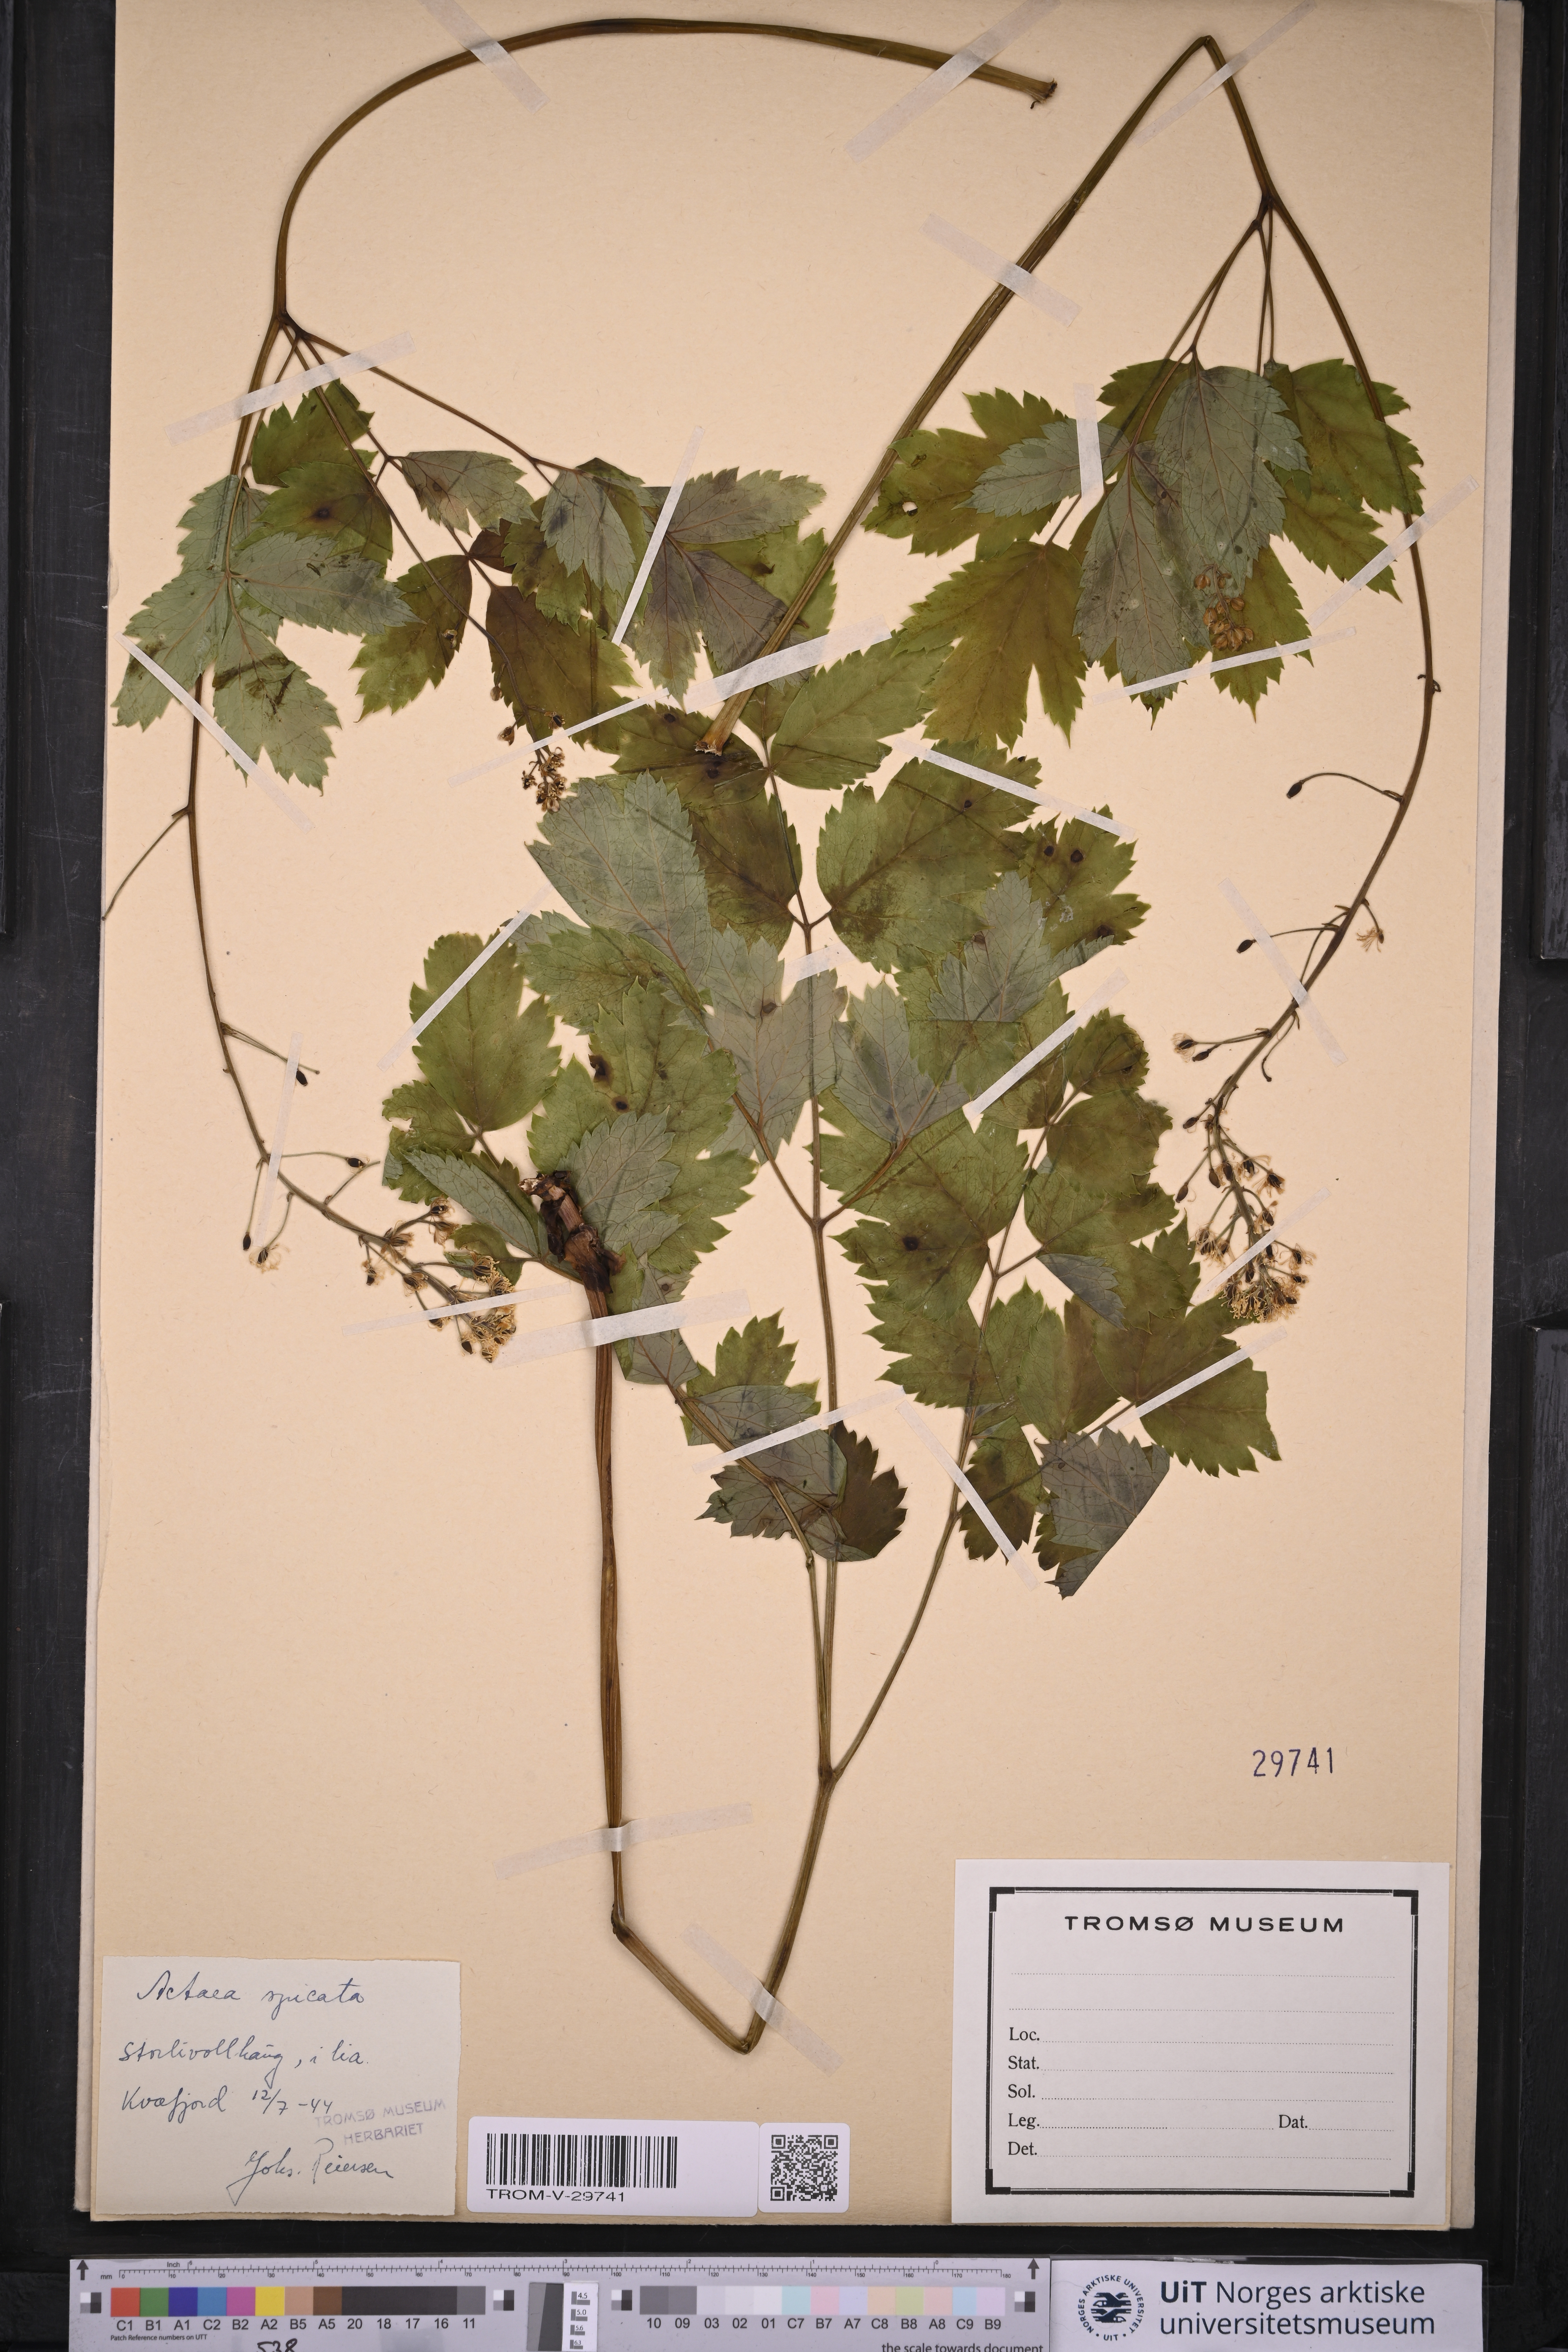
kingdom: Plantae
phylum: Tracheophyta
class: Magnoliopsida
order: Ranunculales
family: Ranunculaceae
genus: Actaea
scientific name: Actaea spicata
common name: Baneberry
